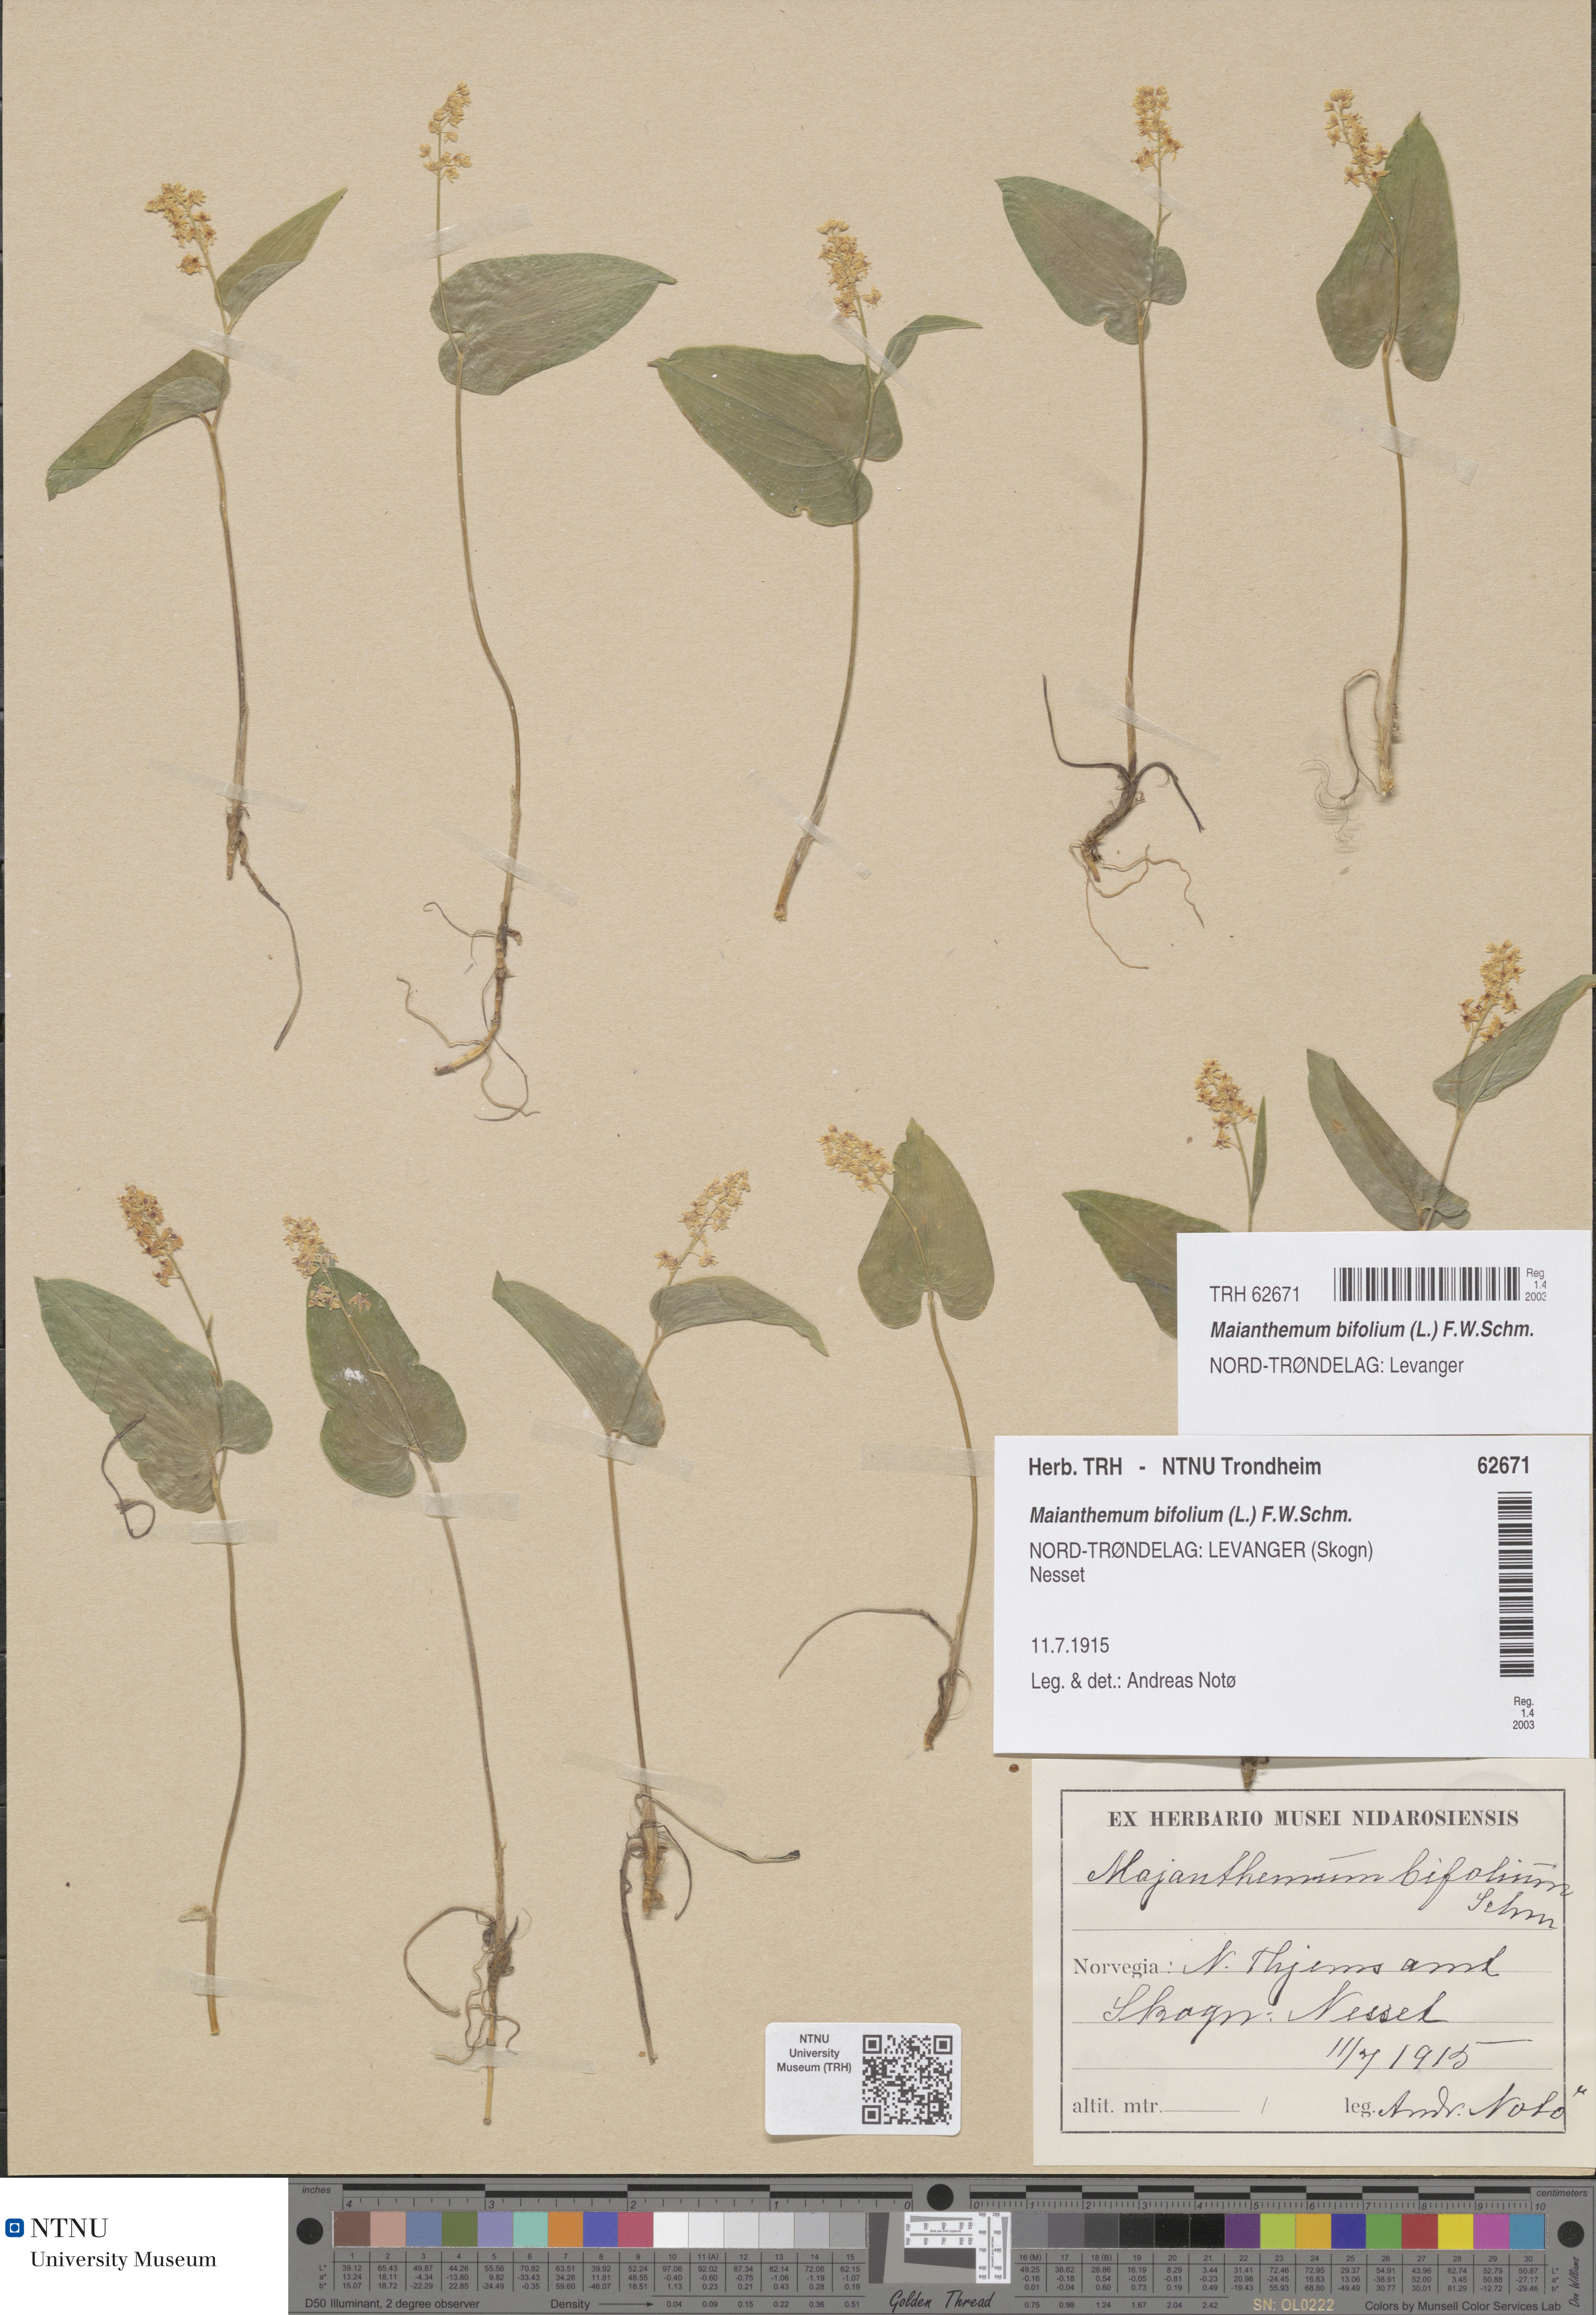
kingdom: Plantae
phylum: Tracheophyta
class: Liliopsida
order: Asparagales
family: Asparagaceae
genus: Maianthemum
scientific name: Maianthemum bifolium
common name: May lily
